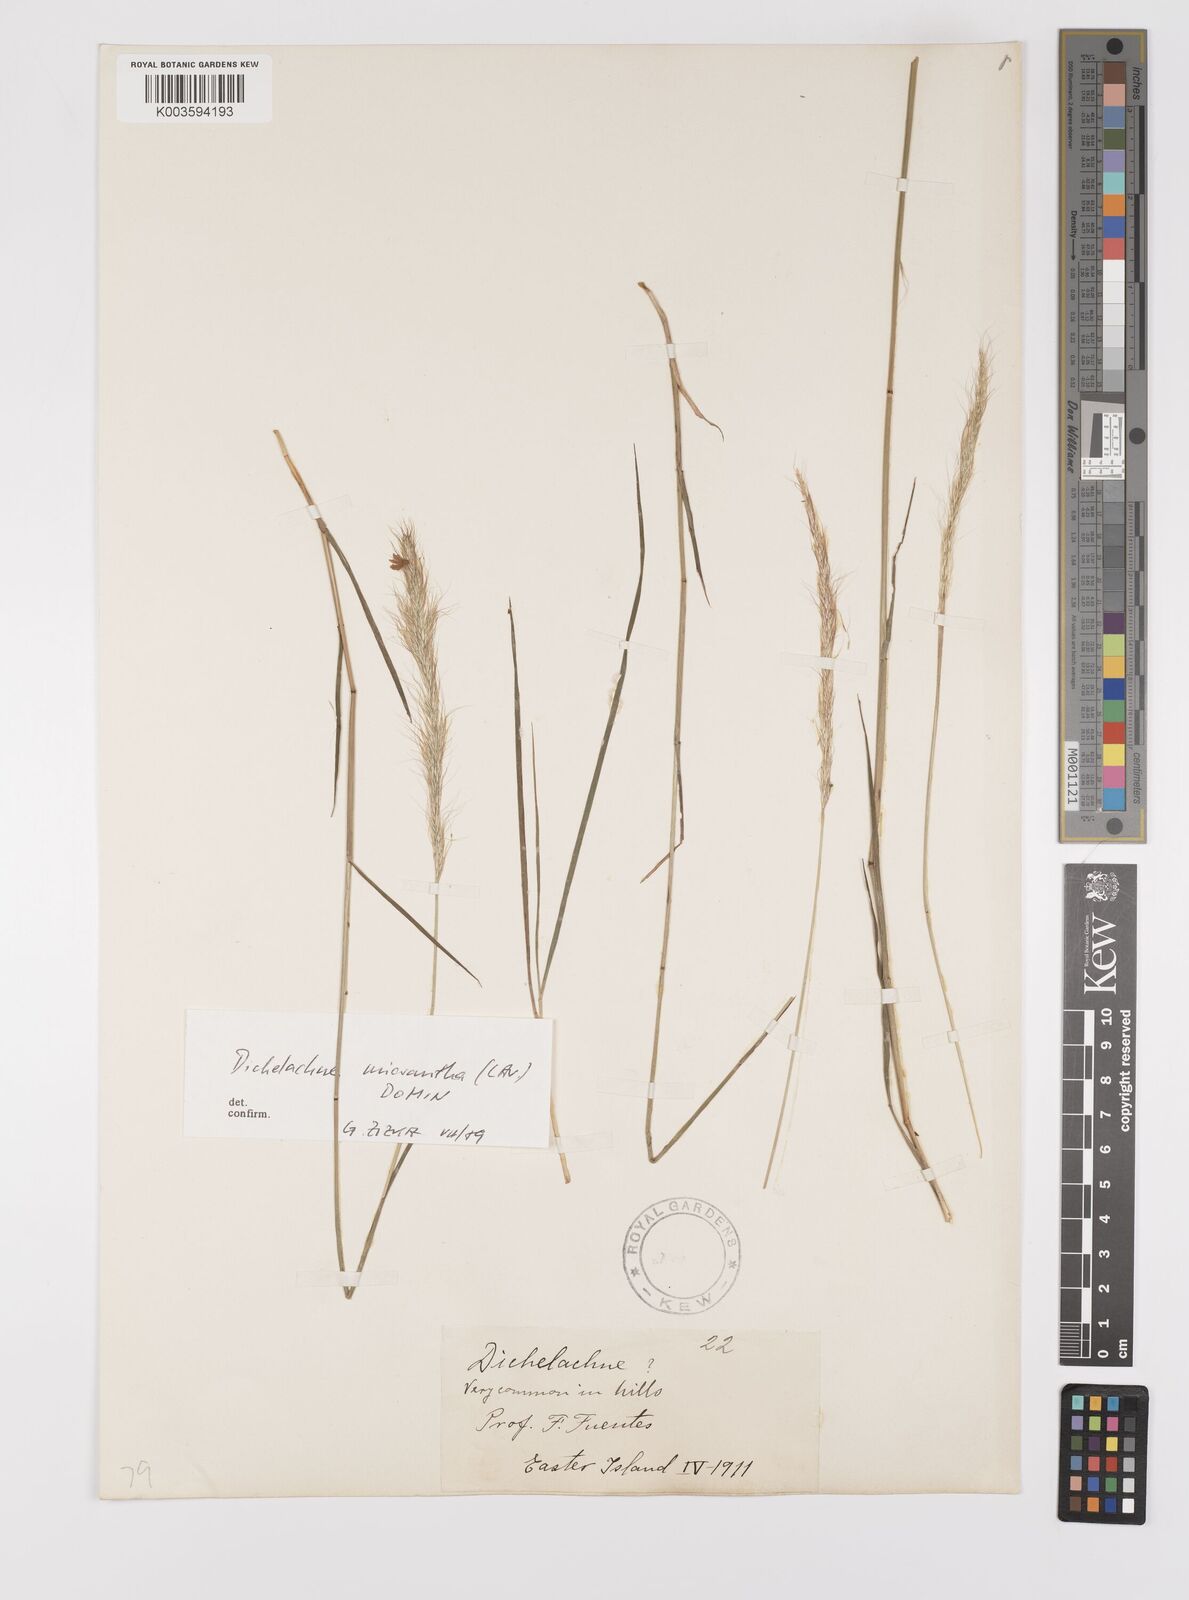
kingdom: Plantae
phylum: Tracheophyta
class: Liliopsida
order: Poales
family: Poaceae
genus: Dichelachne
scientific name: Dichelachne micrantha
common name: Plumegrass
